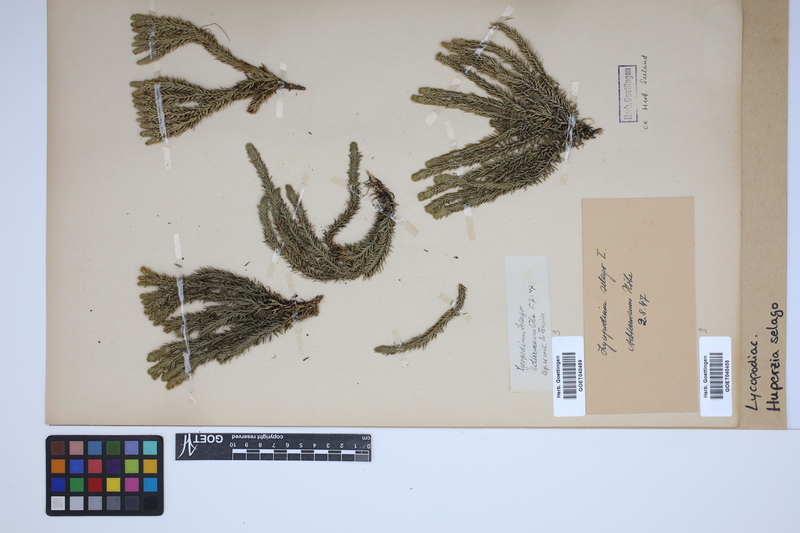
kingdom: Plantae
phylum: Tracheophyta
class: Lycopodiopsida
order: Lycopodiales
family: Lycopodiaceae
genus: Huperzia
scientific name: Huperzia selago
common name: Northern firmoss
